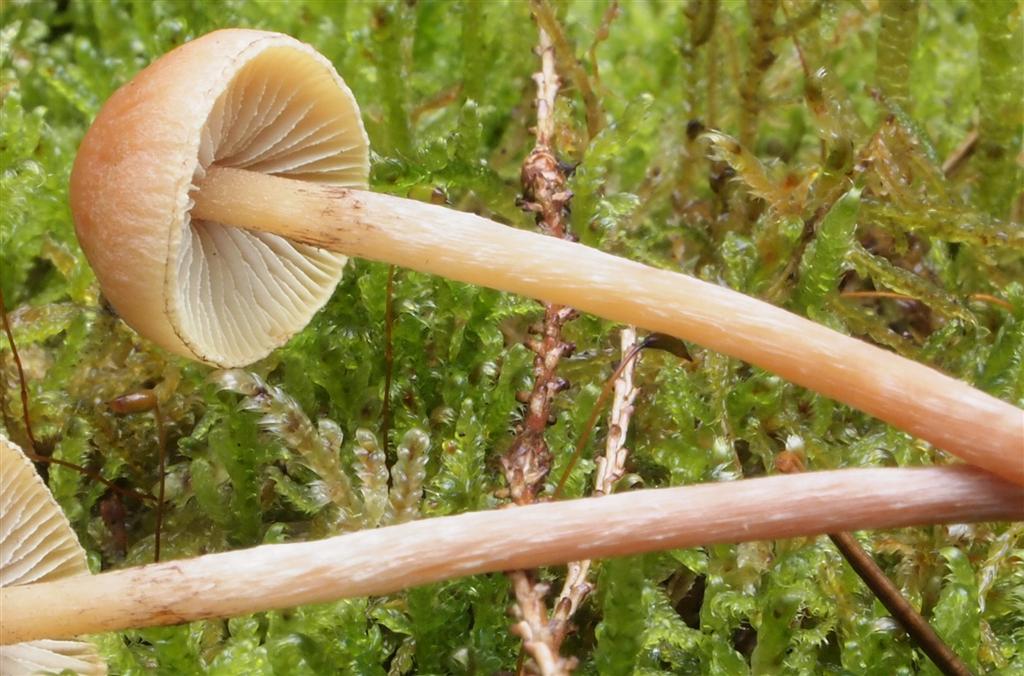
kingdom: Fungi
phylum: Basidiomycota
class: Agaricomycetes
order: Agaricales
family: Strophariaceae
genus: Hypholoma
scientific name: Hypholoma marginatum
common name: enlig svovlhat
